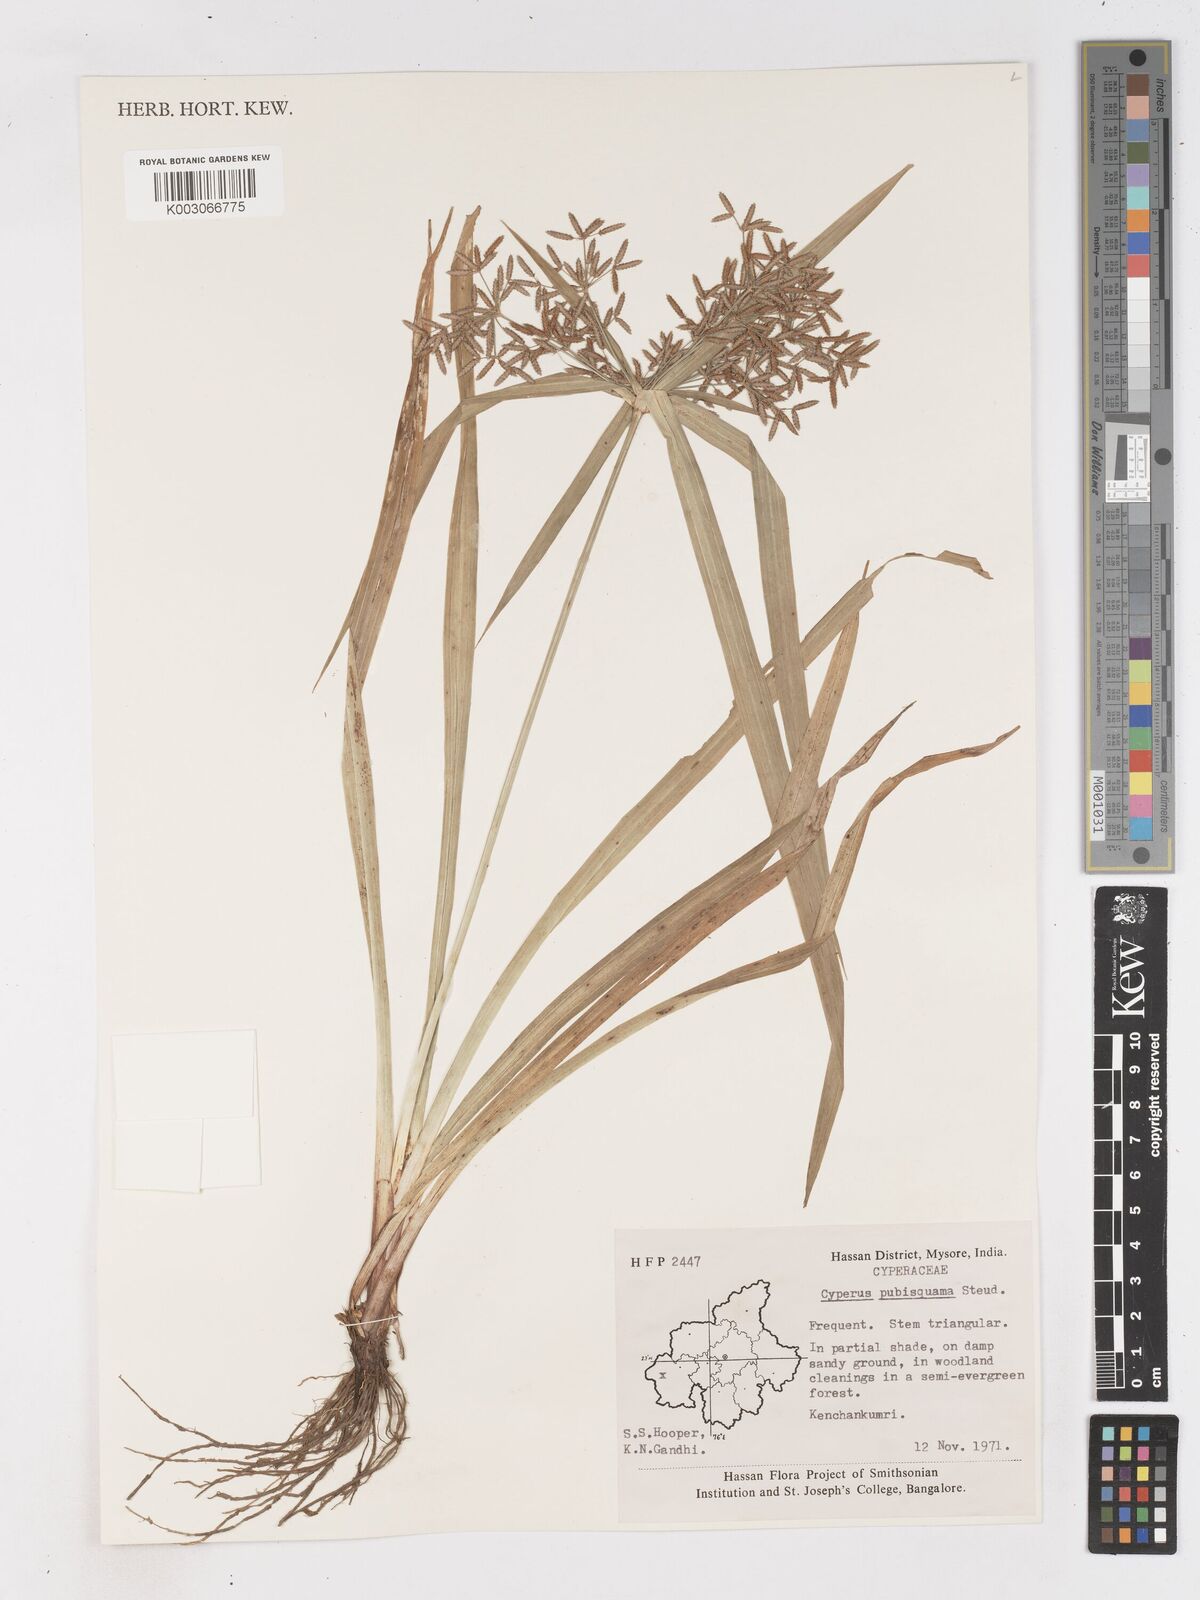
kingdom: Plantae
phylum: Tracheophyta
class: Liliopsida
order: Poales
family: Cyperaceae
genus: Cyperus
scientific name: Cyperus diffusus
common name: Dwarf umbrella grass
